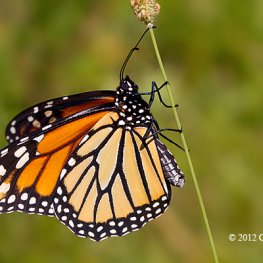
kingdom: Animalia
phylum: Arthropoda
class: Insecta
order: Lepidoptera
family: Nymphalidae
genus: Danaus
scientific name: Danaus plexippus
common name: Monarch
